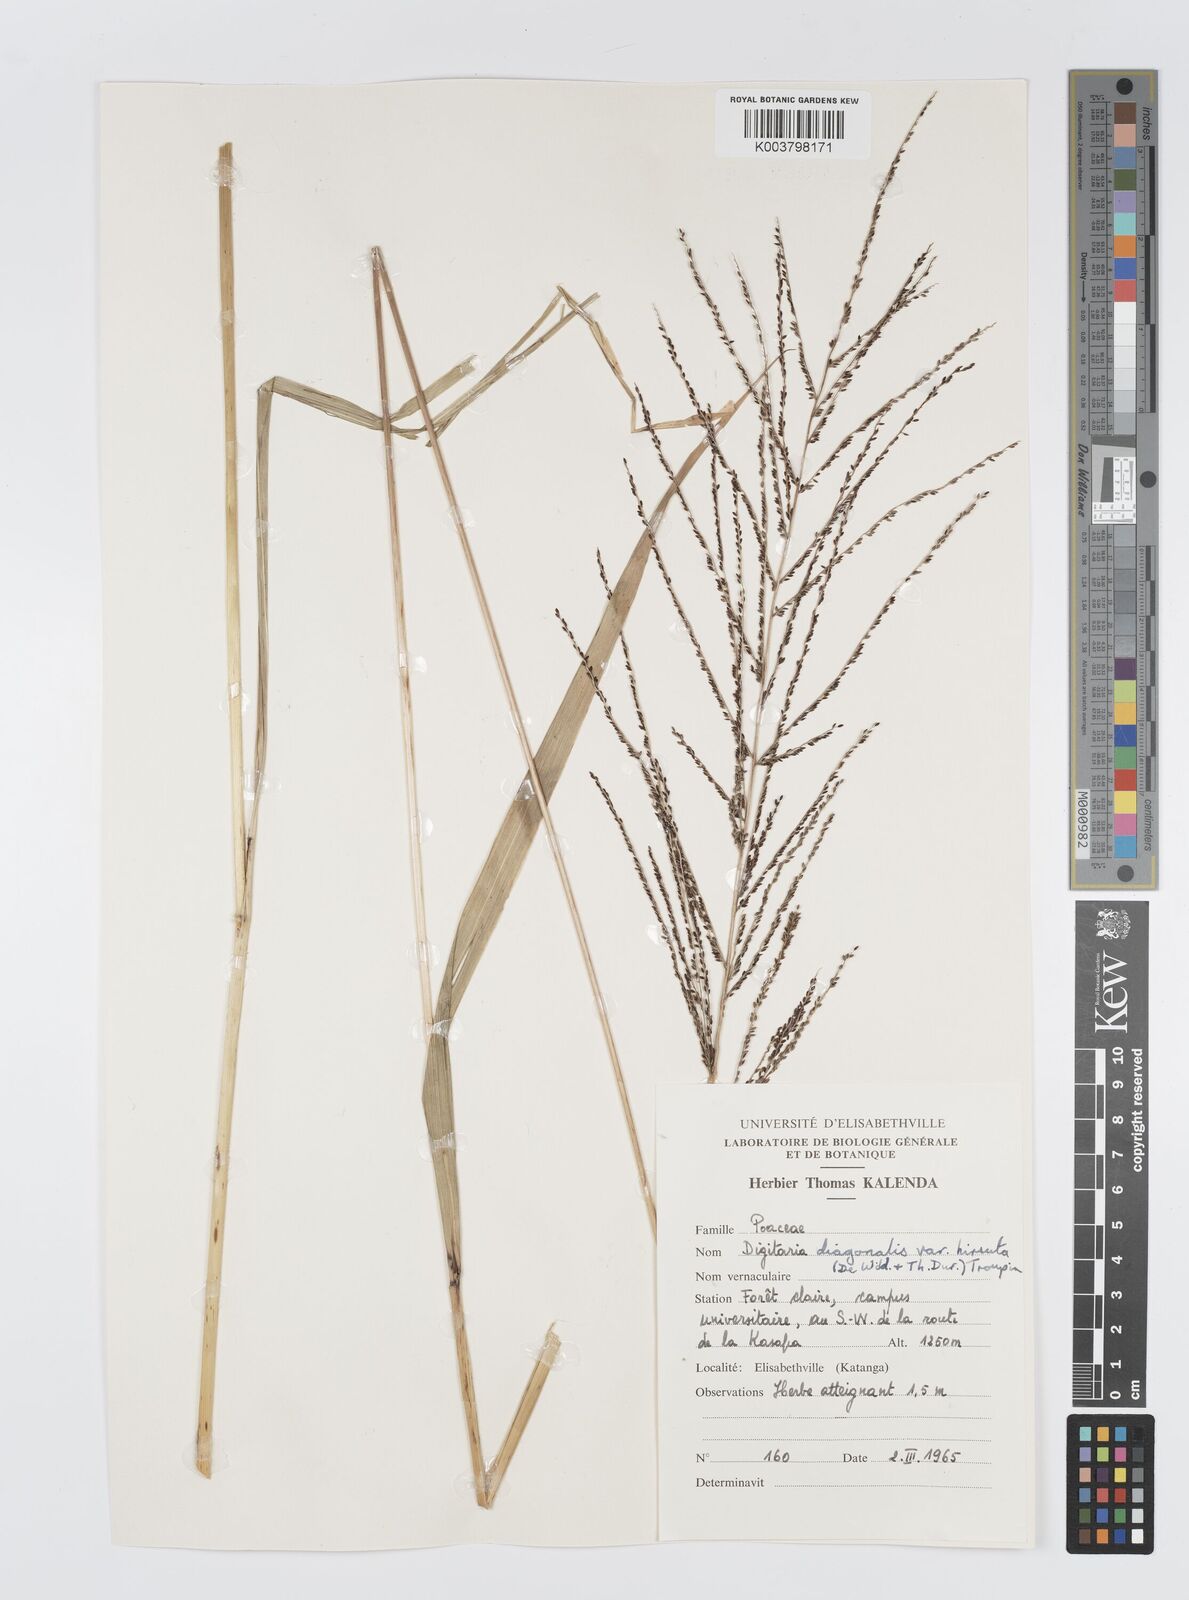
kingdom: Plantae
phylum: Tracheophyta
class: Liliopsida
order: Poales
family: Poaceae
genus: Digitaria
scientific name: Digitaria diagonalis
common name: Brown-seed finger grass
